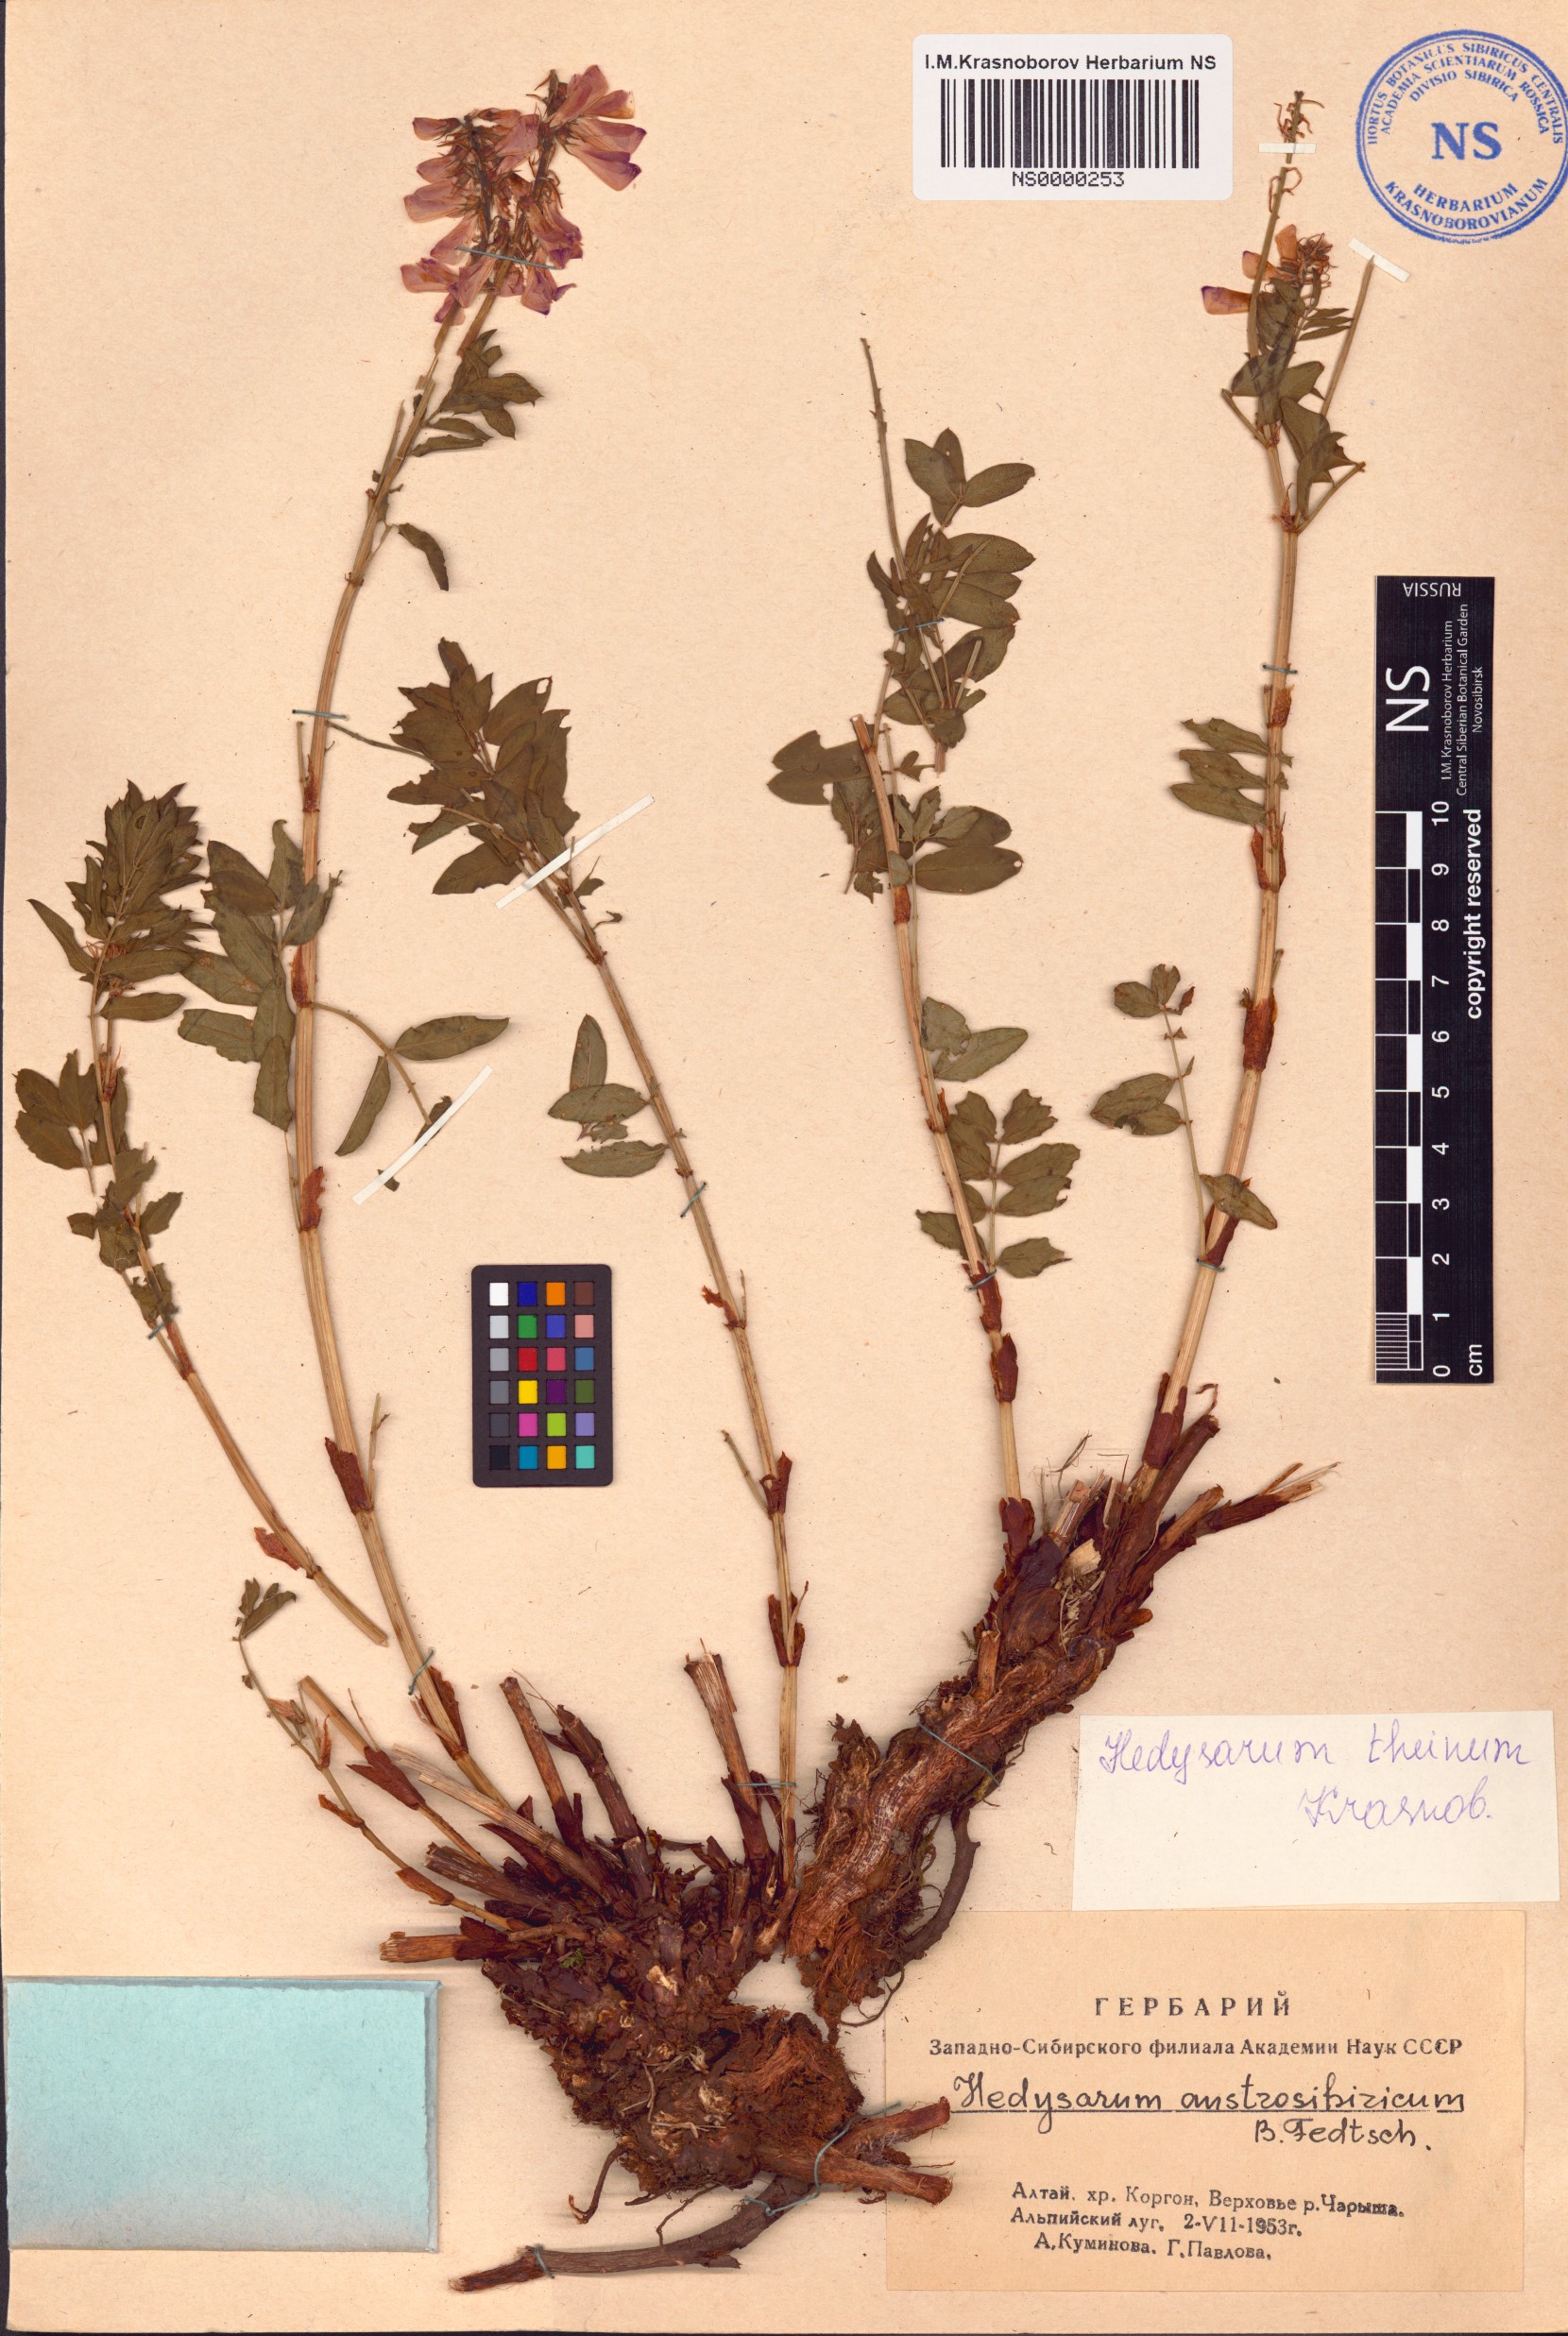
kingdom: Plantae
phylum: Tracheophyta
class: Magnoliopsida
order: Fabales
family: Fabaceae
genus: Hedysarum
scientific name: Hedysarum theinum
